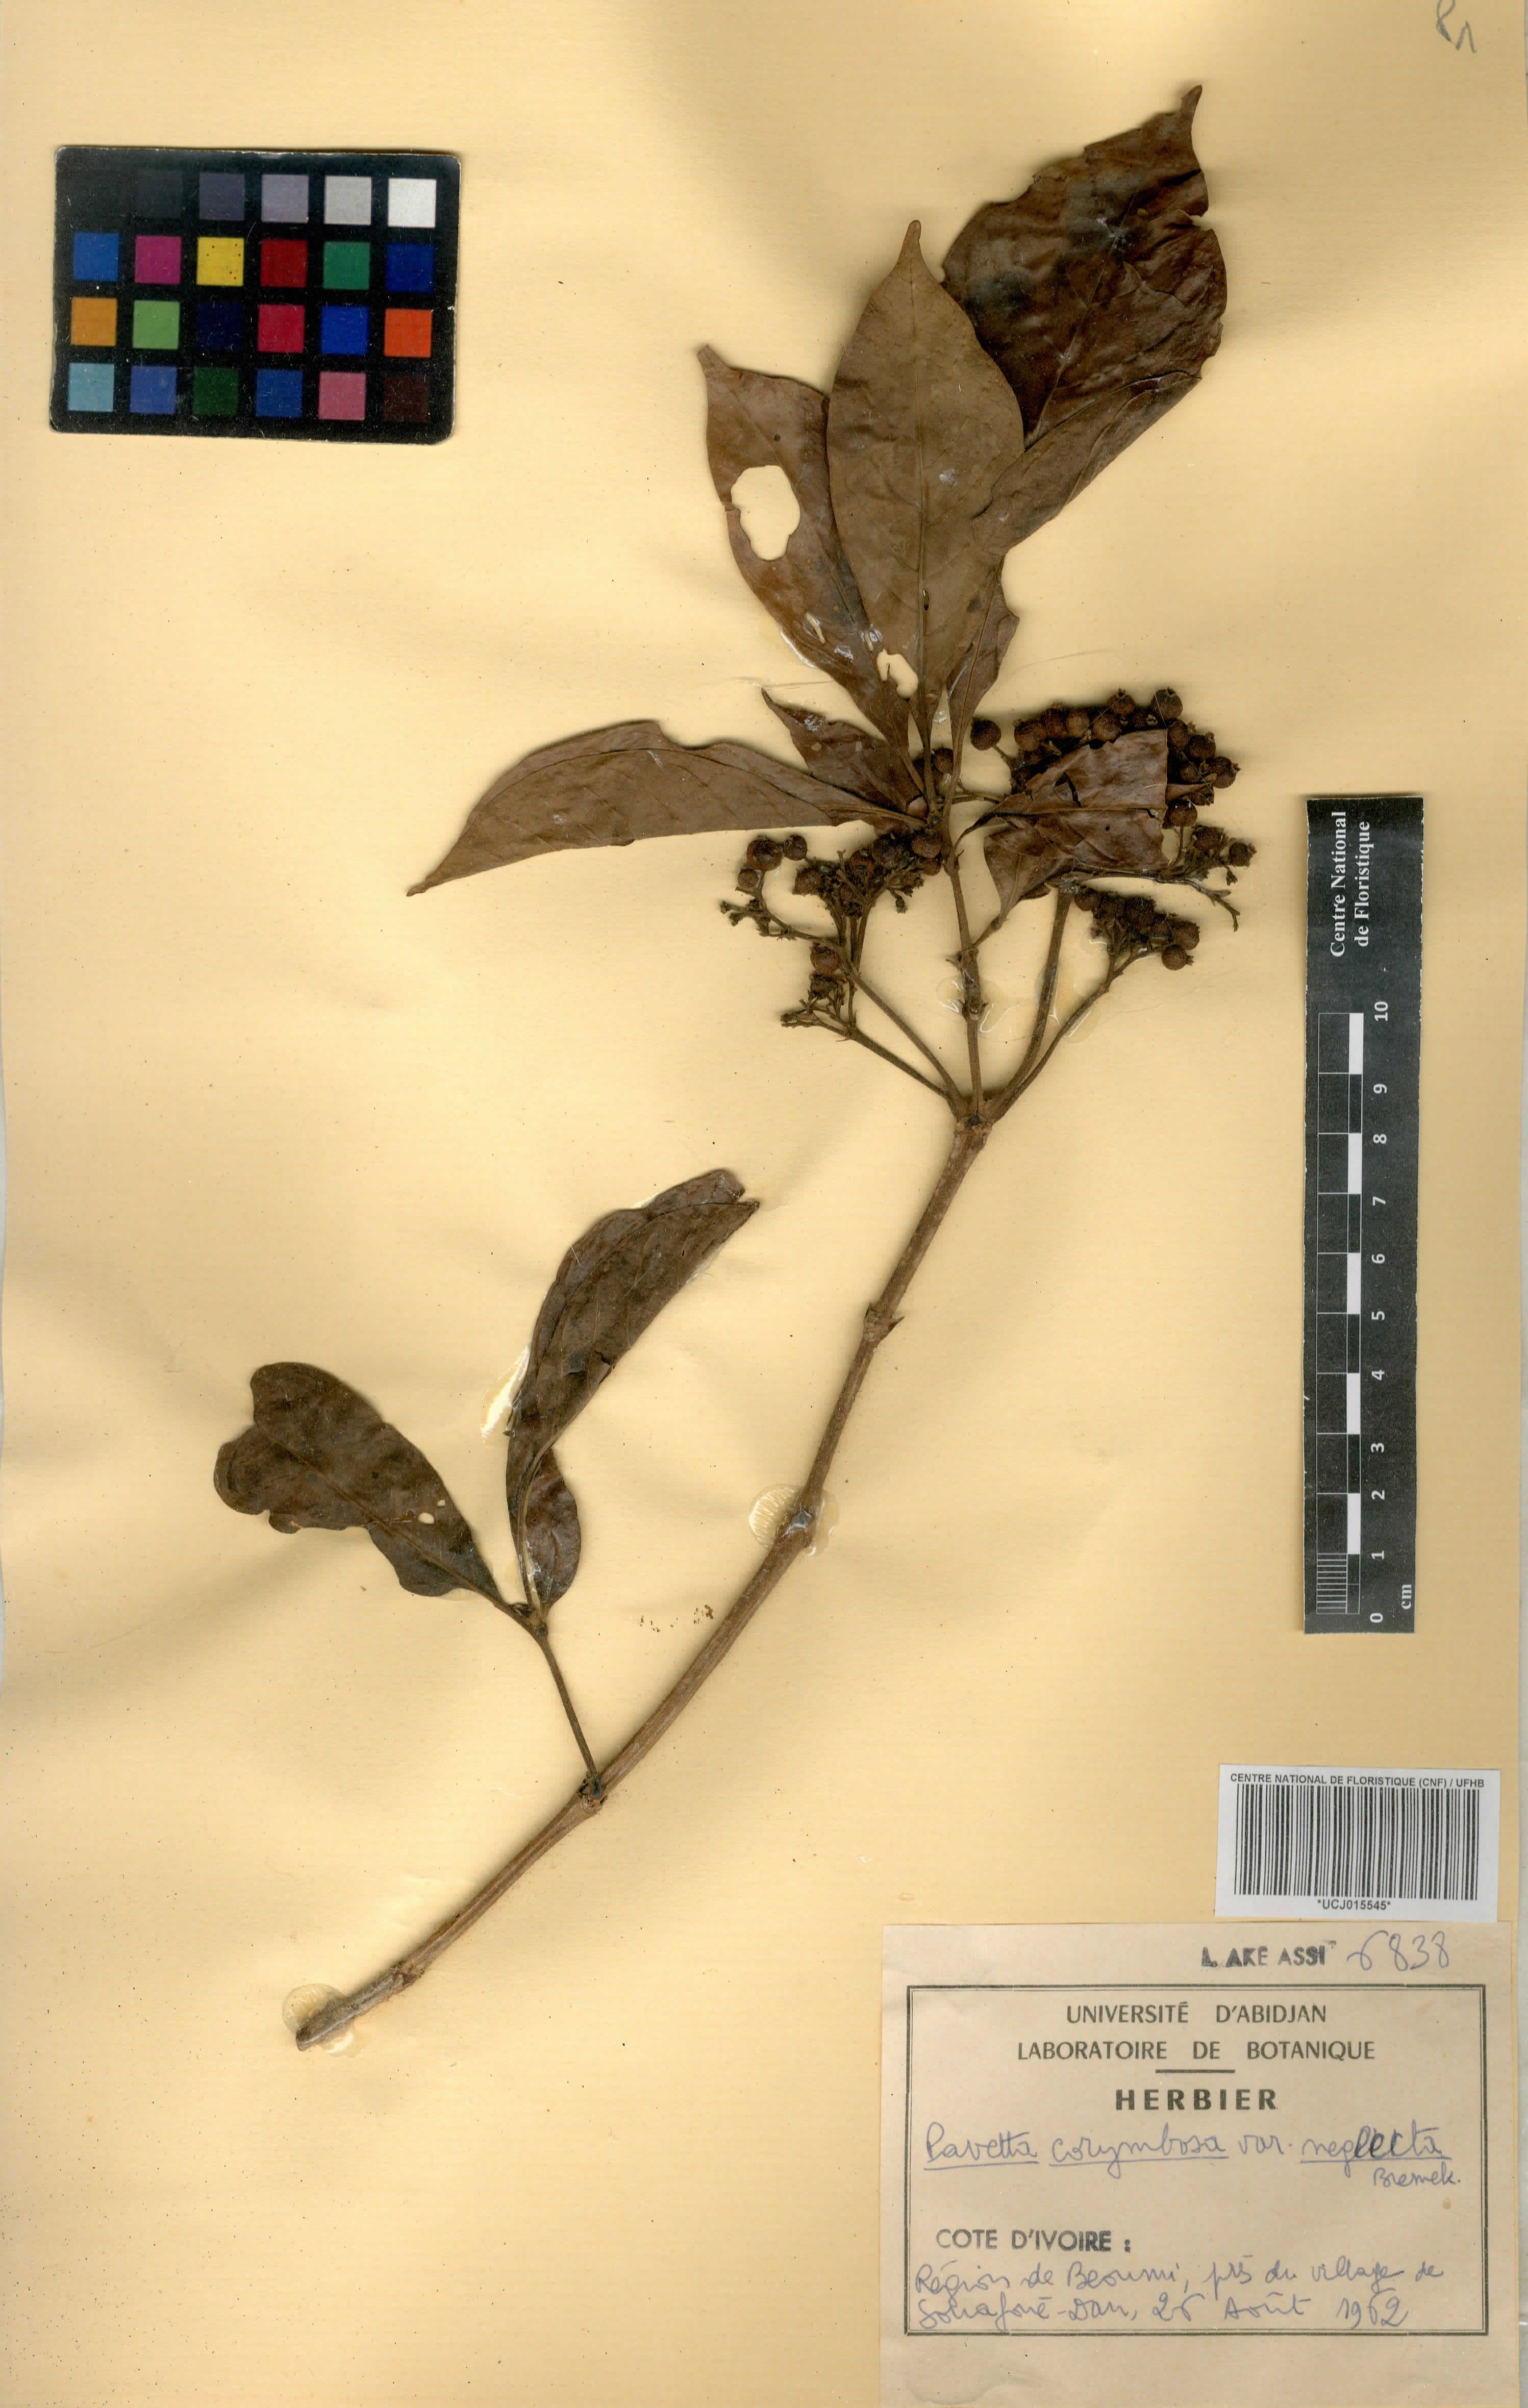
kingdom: Plantae
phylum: Tracheophyta
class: Magnoliopsida
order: Gentianales
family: Rubiaceae
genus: Pavetta
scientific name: Pavetta corymbosa
